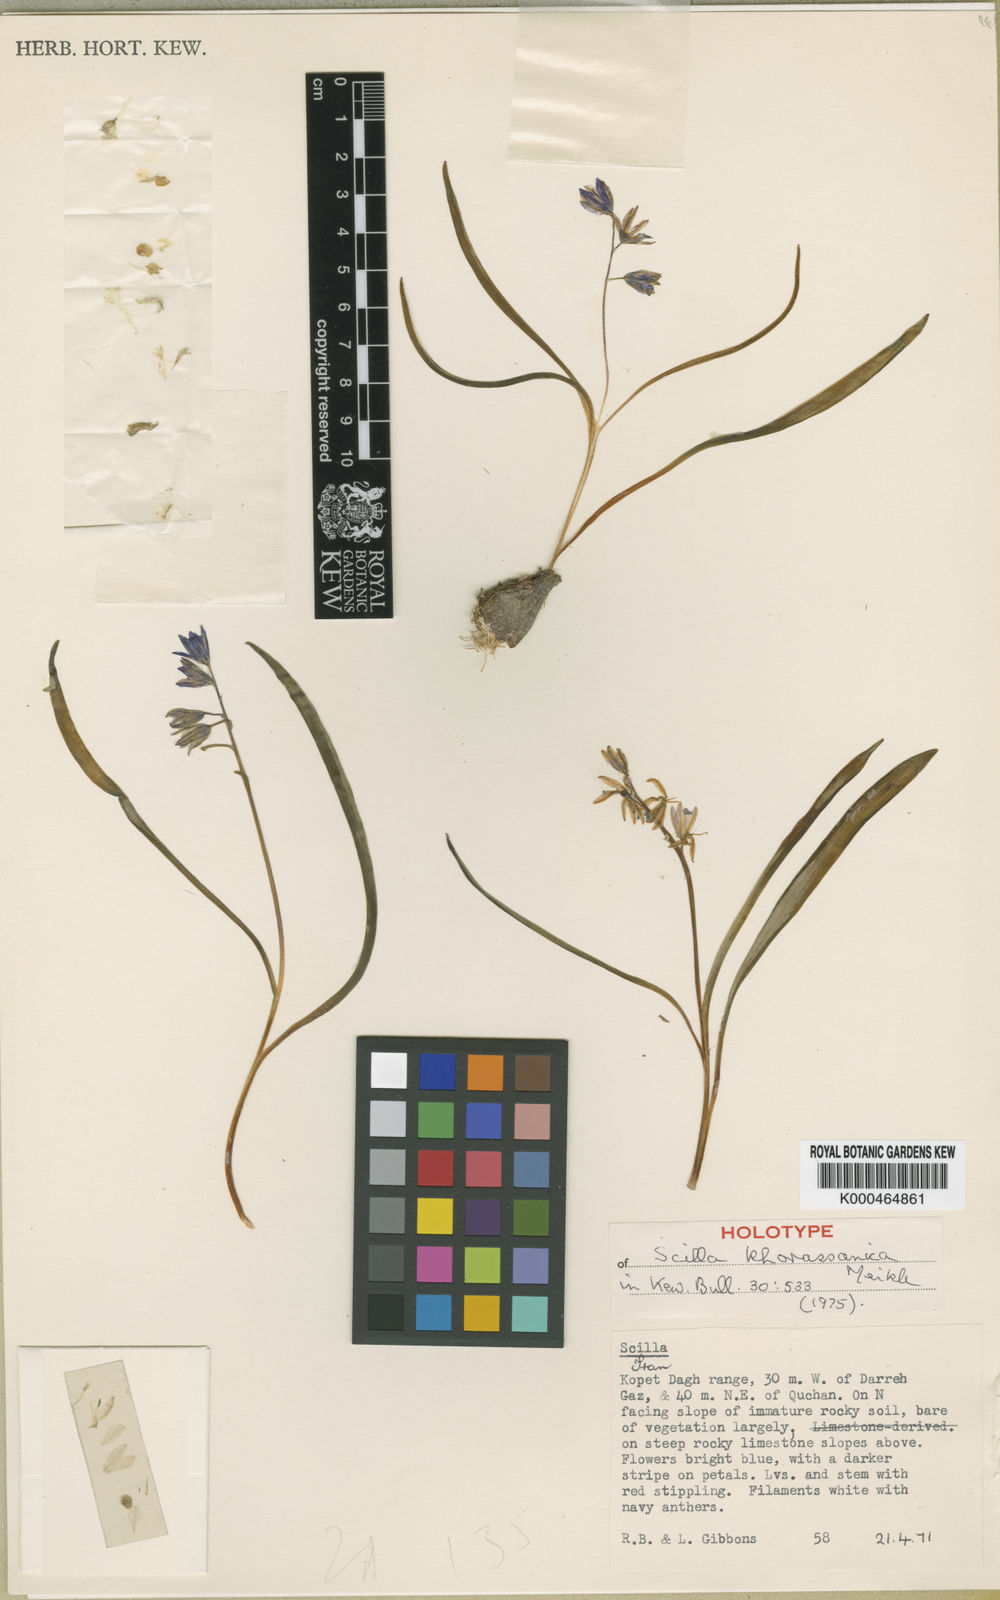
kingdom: Plantae
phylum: Tracheophyta
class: Liliopsida
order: Asparagales
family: Asparagaceae
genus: Fessia
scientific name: Fessia khorassanica
